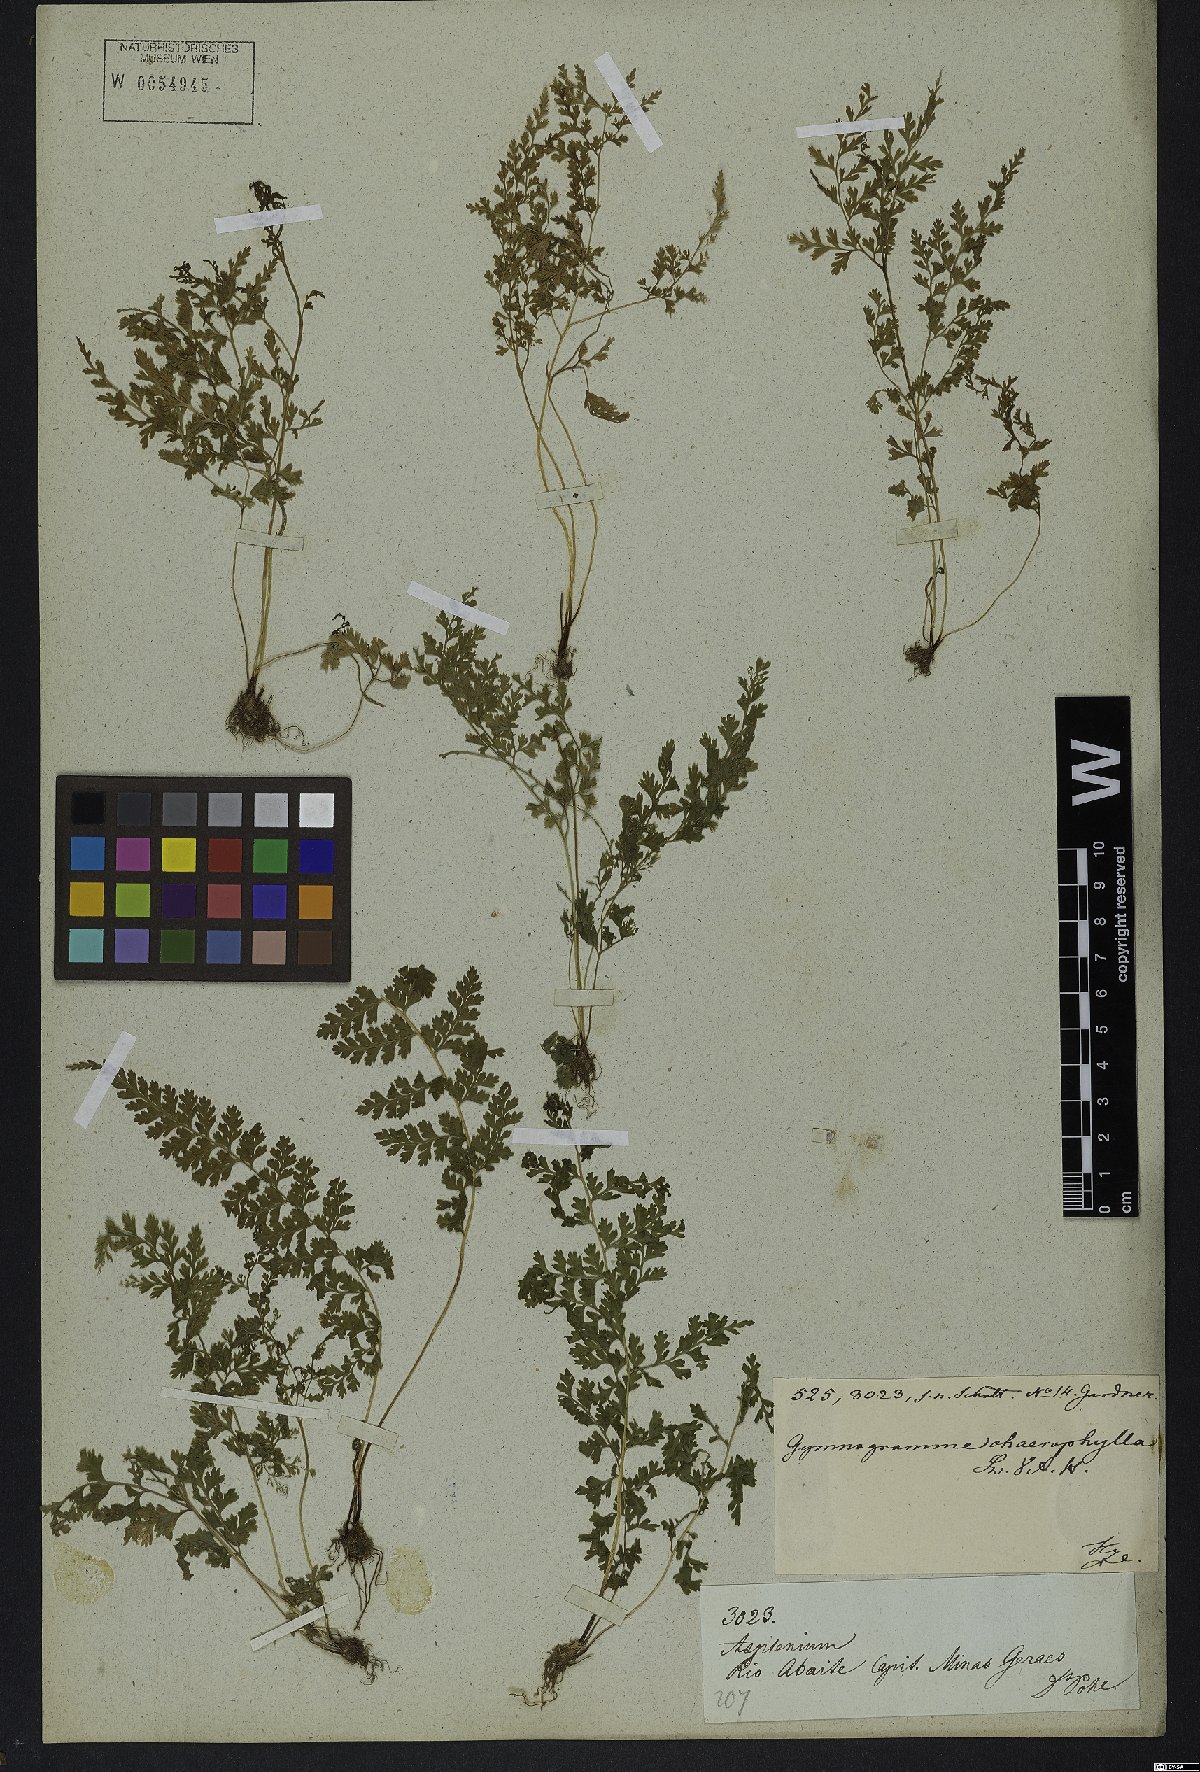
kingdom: Plantae
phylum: Tracheophyta
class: Polypodiopsida
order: Polypodiales
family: Pteridaceae
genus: Gastoniella
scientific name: Gastoniella chaerophylla
